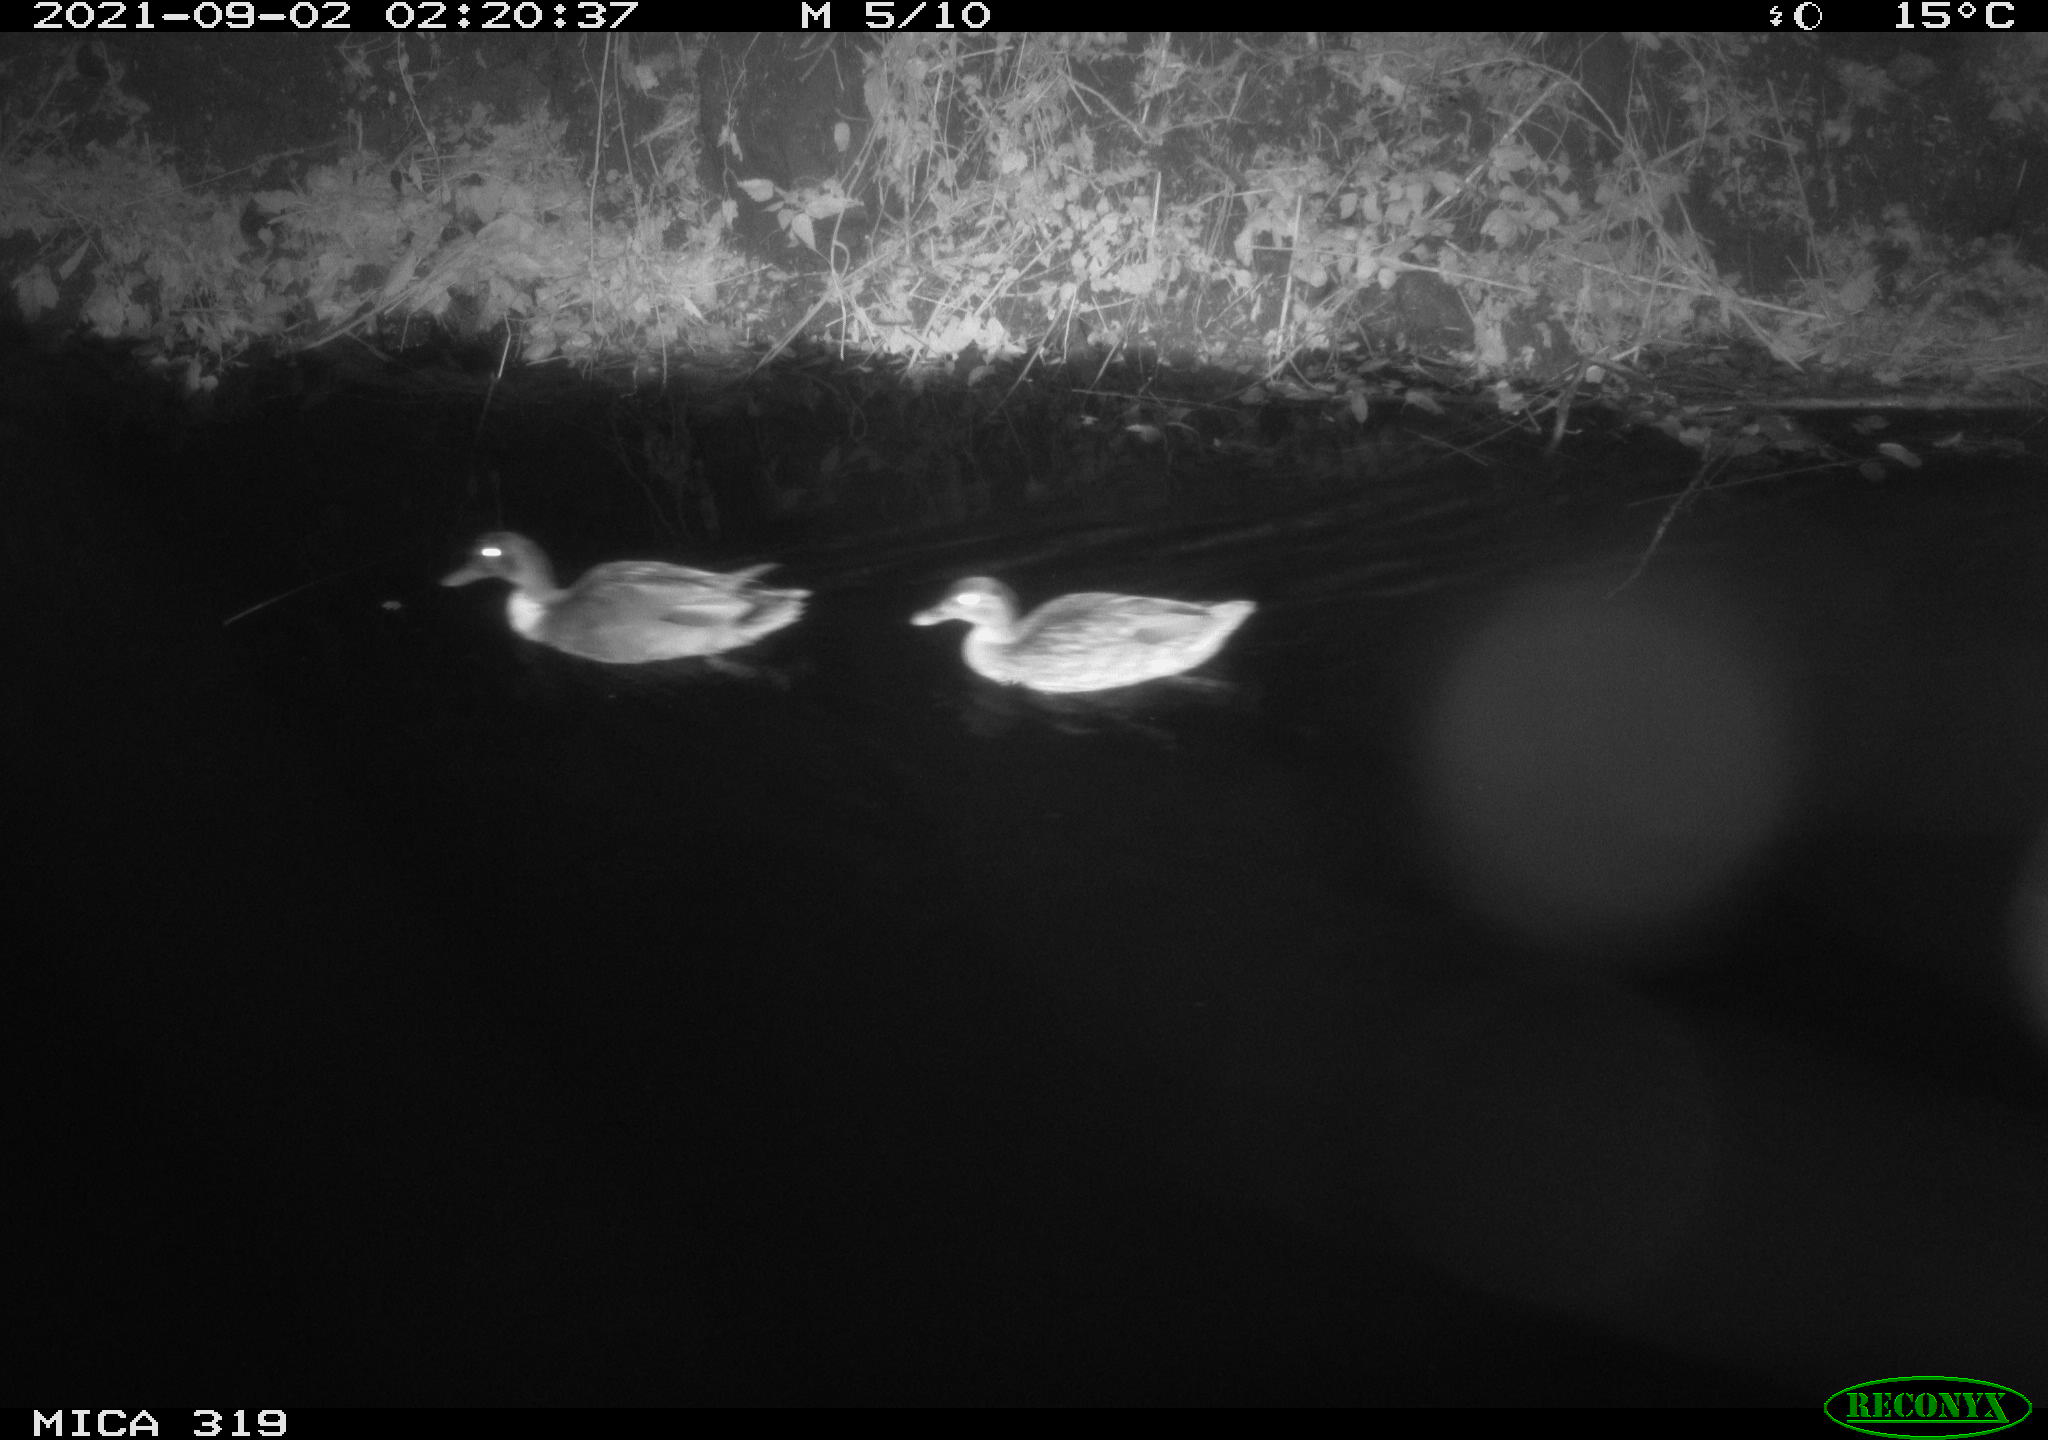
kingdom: Animalia
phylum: Chordata
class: Aves
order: Anseriformes
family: Anatidae
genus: Anas
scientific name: Anas platyrhynchos
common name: Mallard
